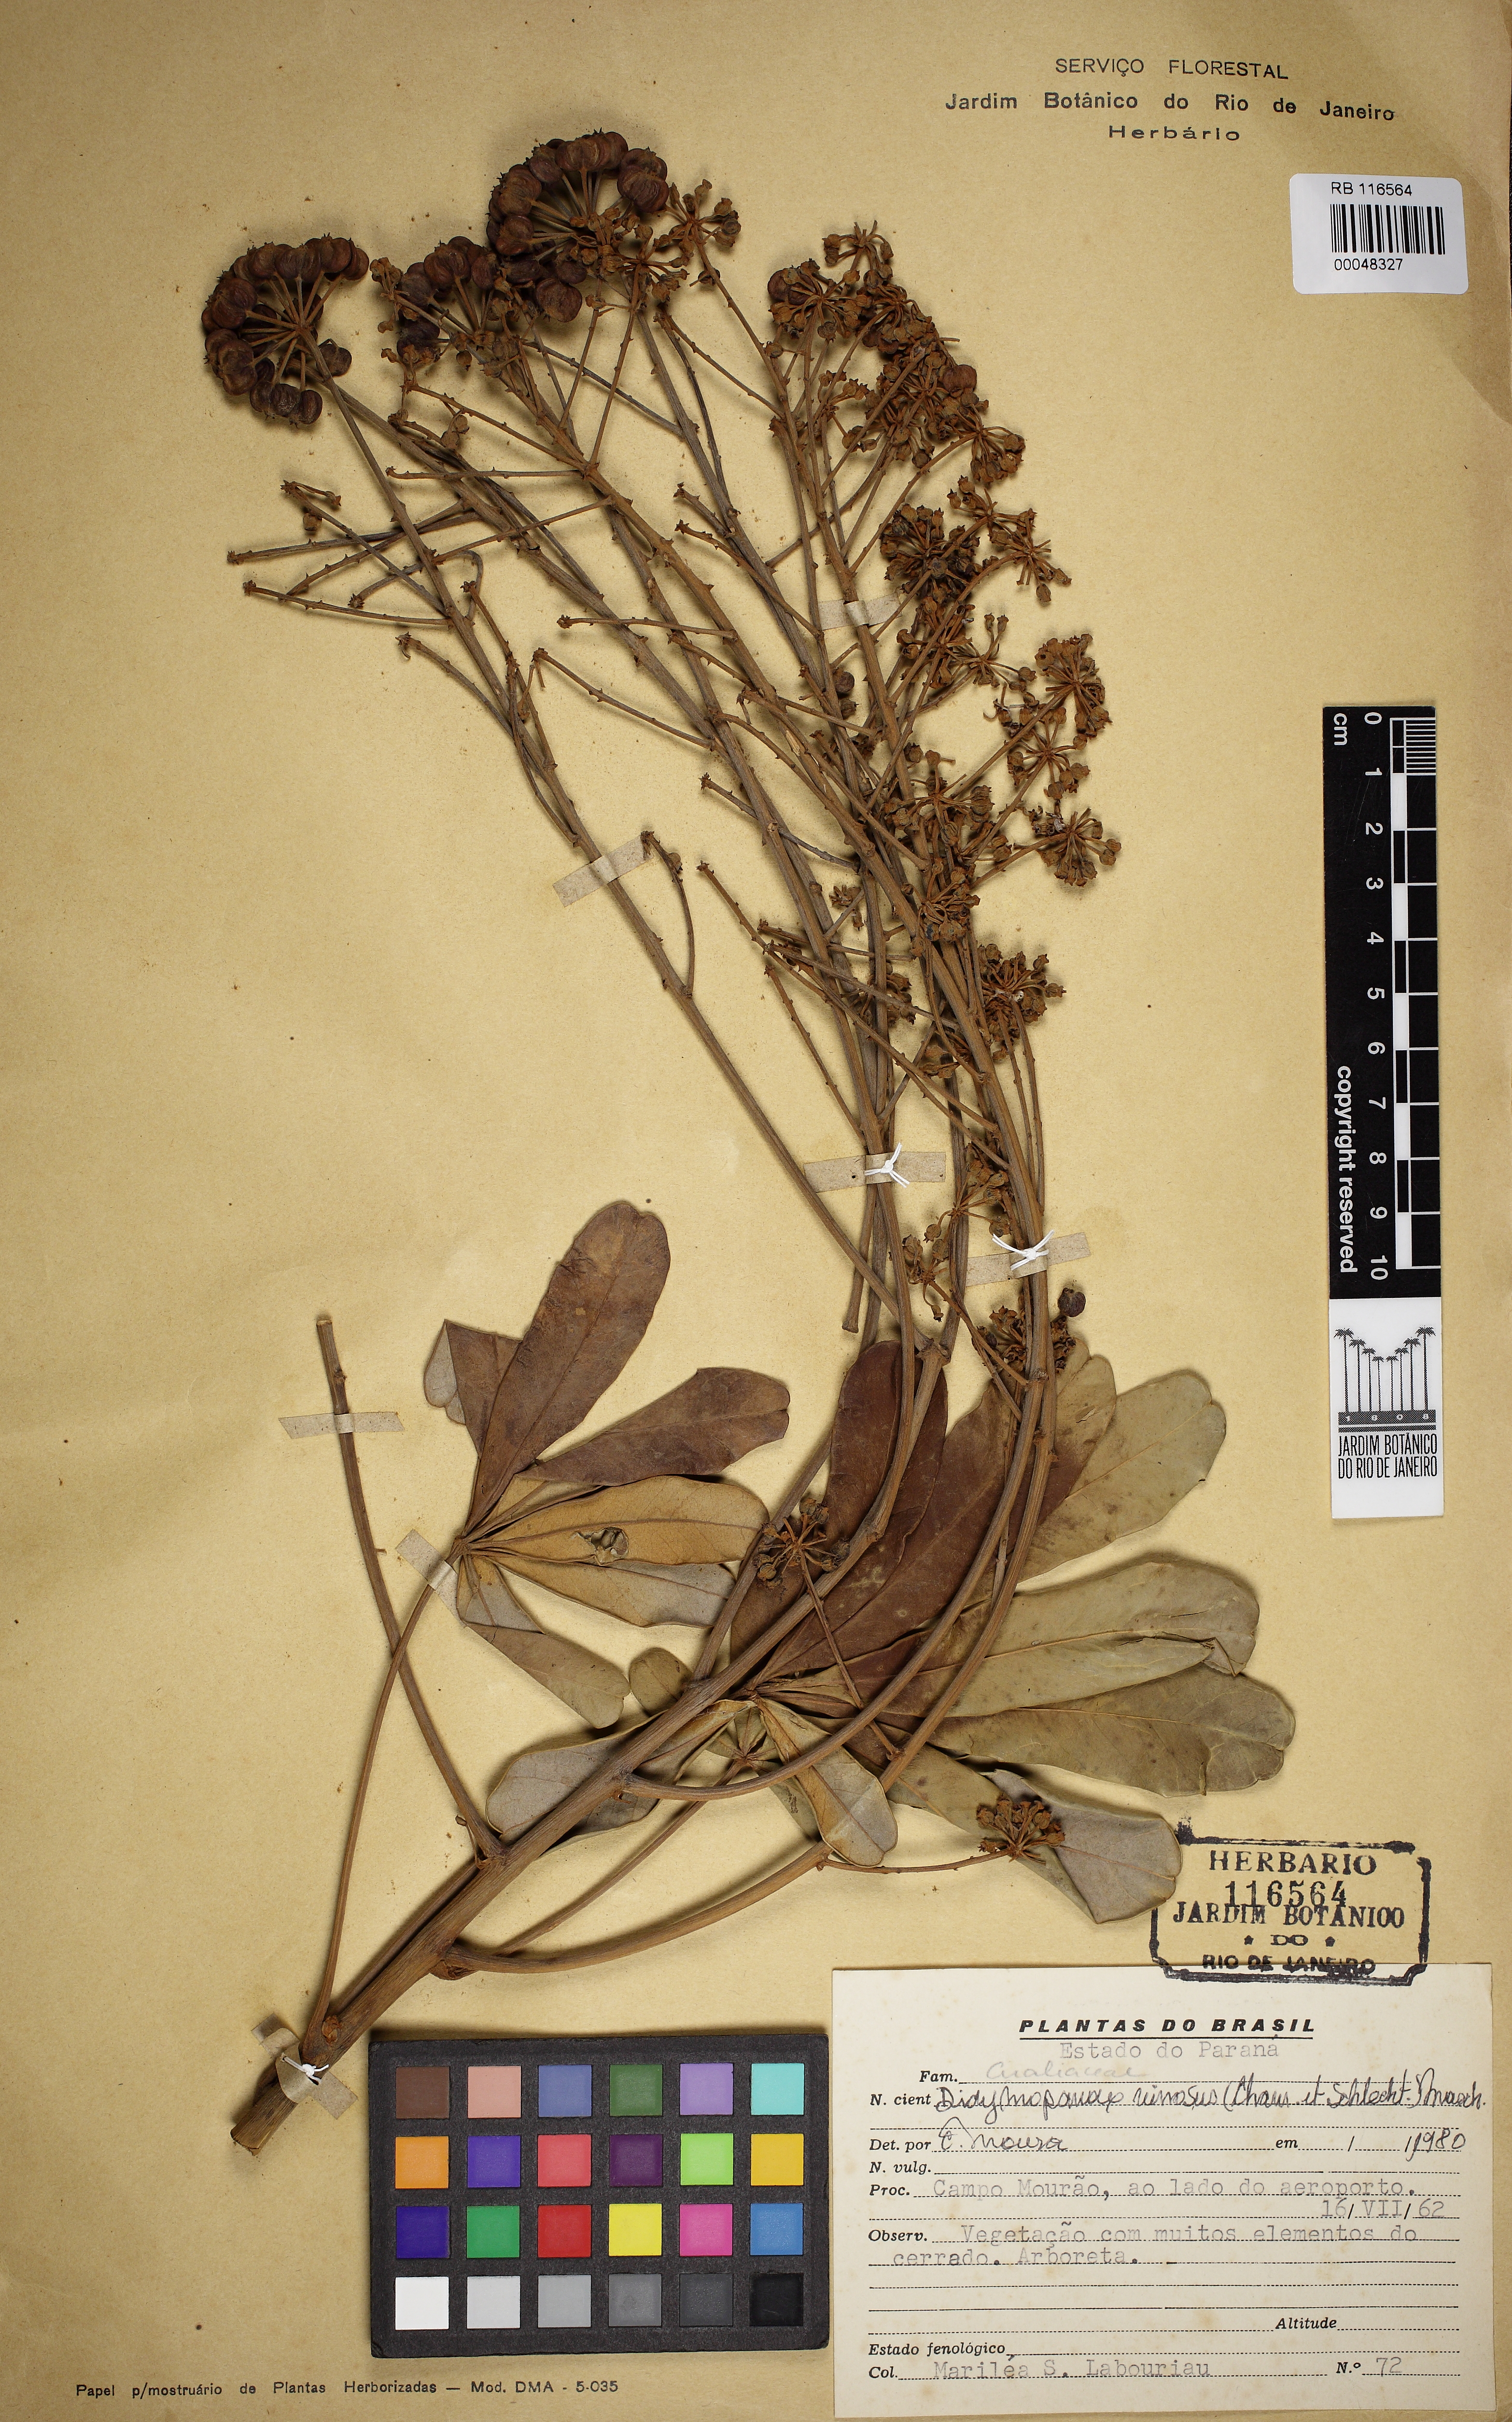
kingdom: Plantae
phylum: Tracheophyta
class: Magnoliopsida
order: Apiales
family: Araliaceae
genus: Didymopanax
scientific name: Didymopanax vinosus
